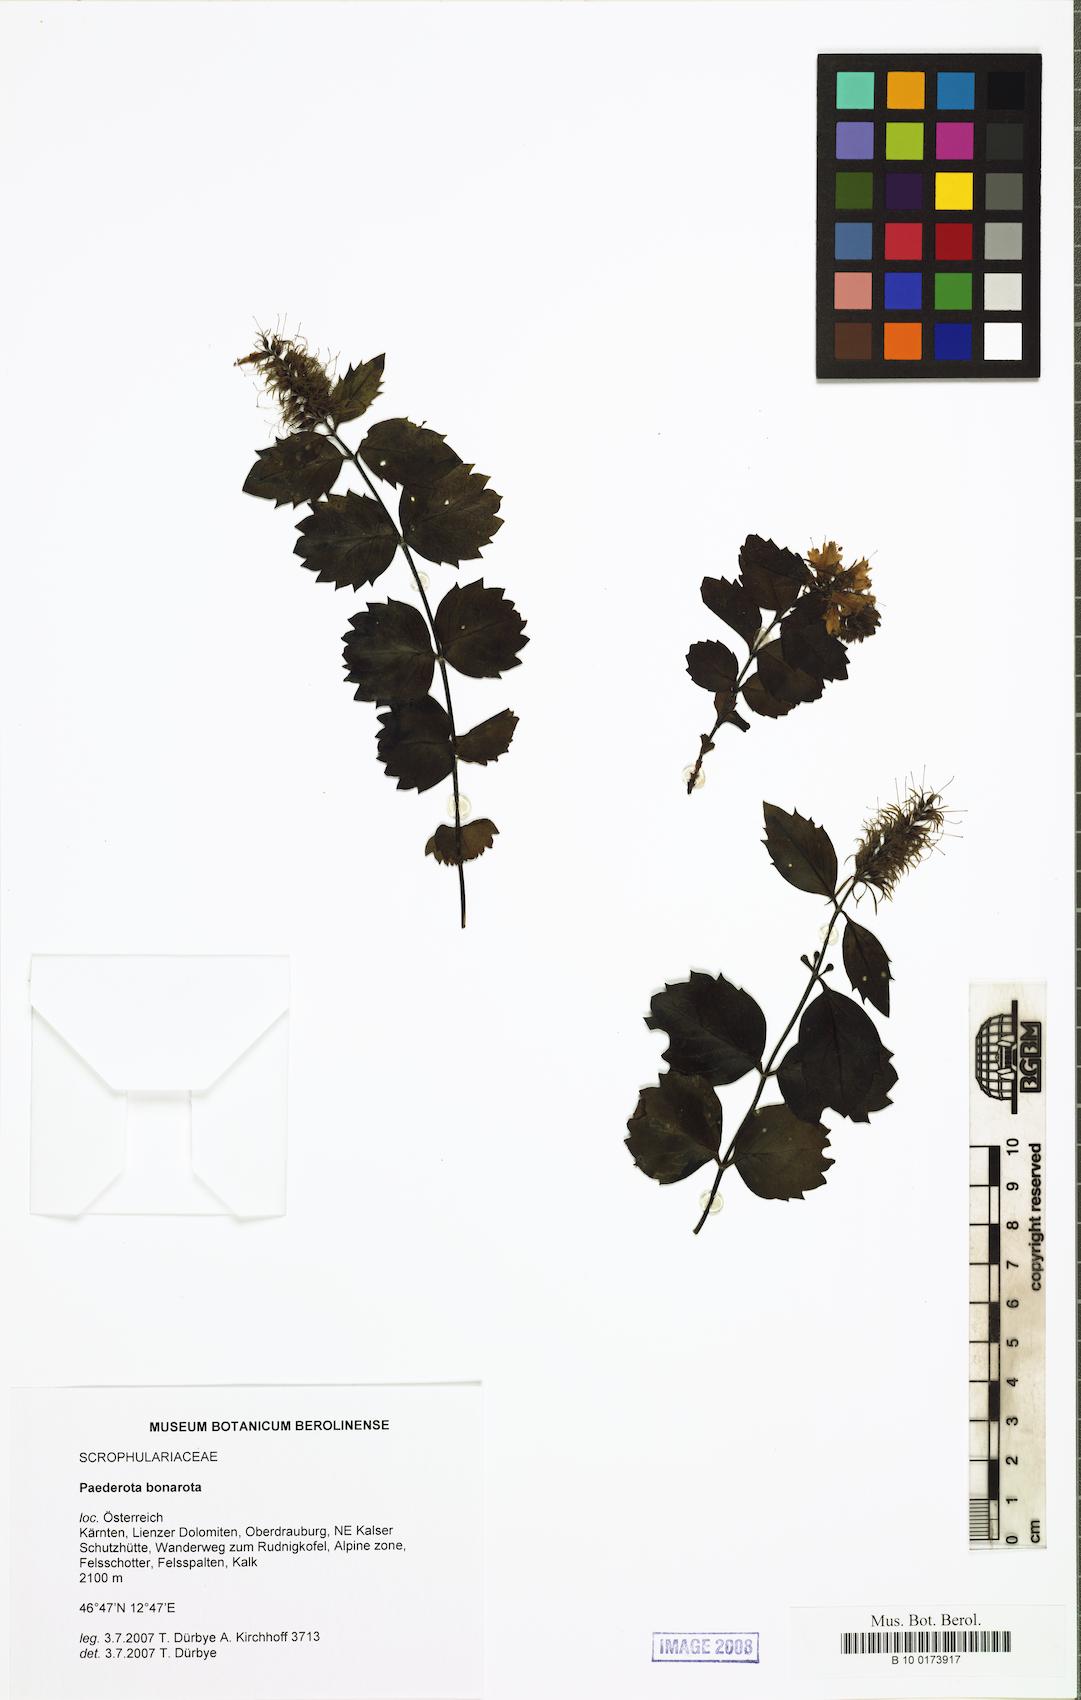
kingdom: Plantae
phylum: Tracheophyta
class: Magnoliopsida
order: Lamiales
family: Plantaginaceae
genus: Paederota
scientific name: Paederota bonarota
